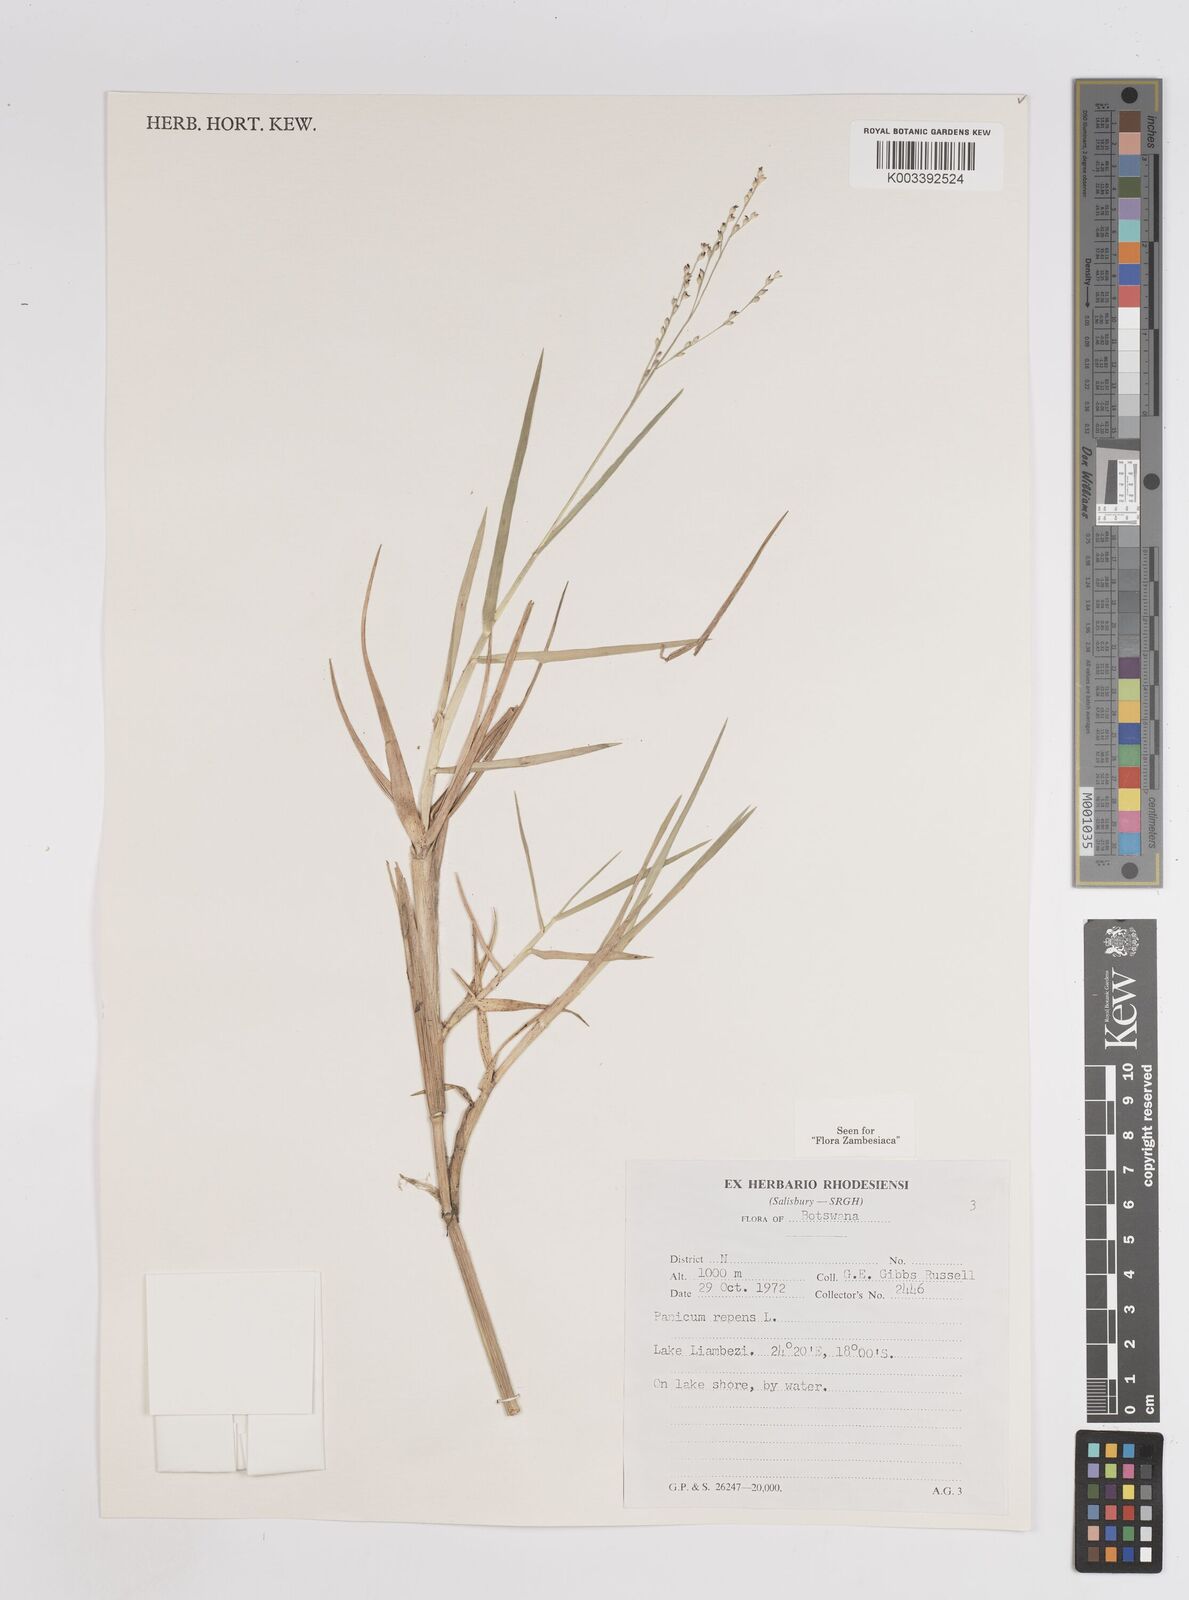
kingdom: Plantae
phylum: Tracheophyta
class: Liliopsida
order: Poales
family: Poaceae
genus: Panicum
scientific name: Panicum repens
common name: Torpedo grass
